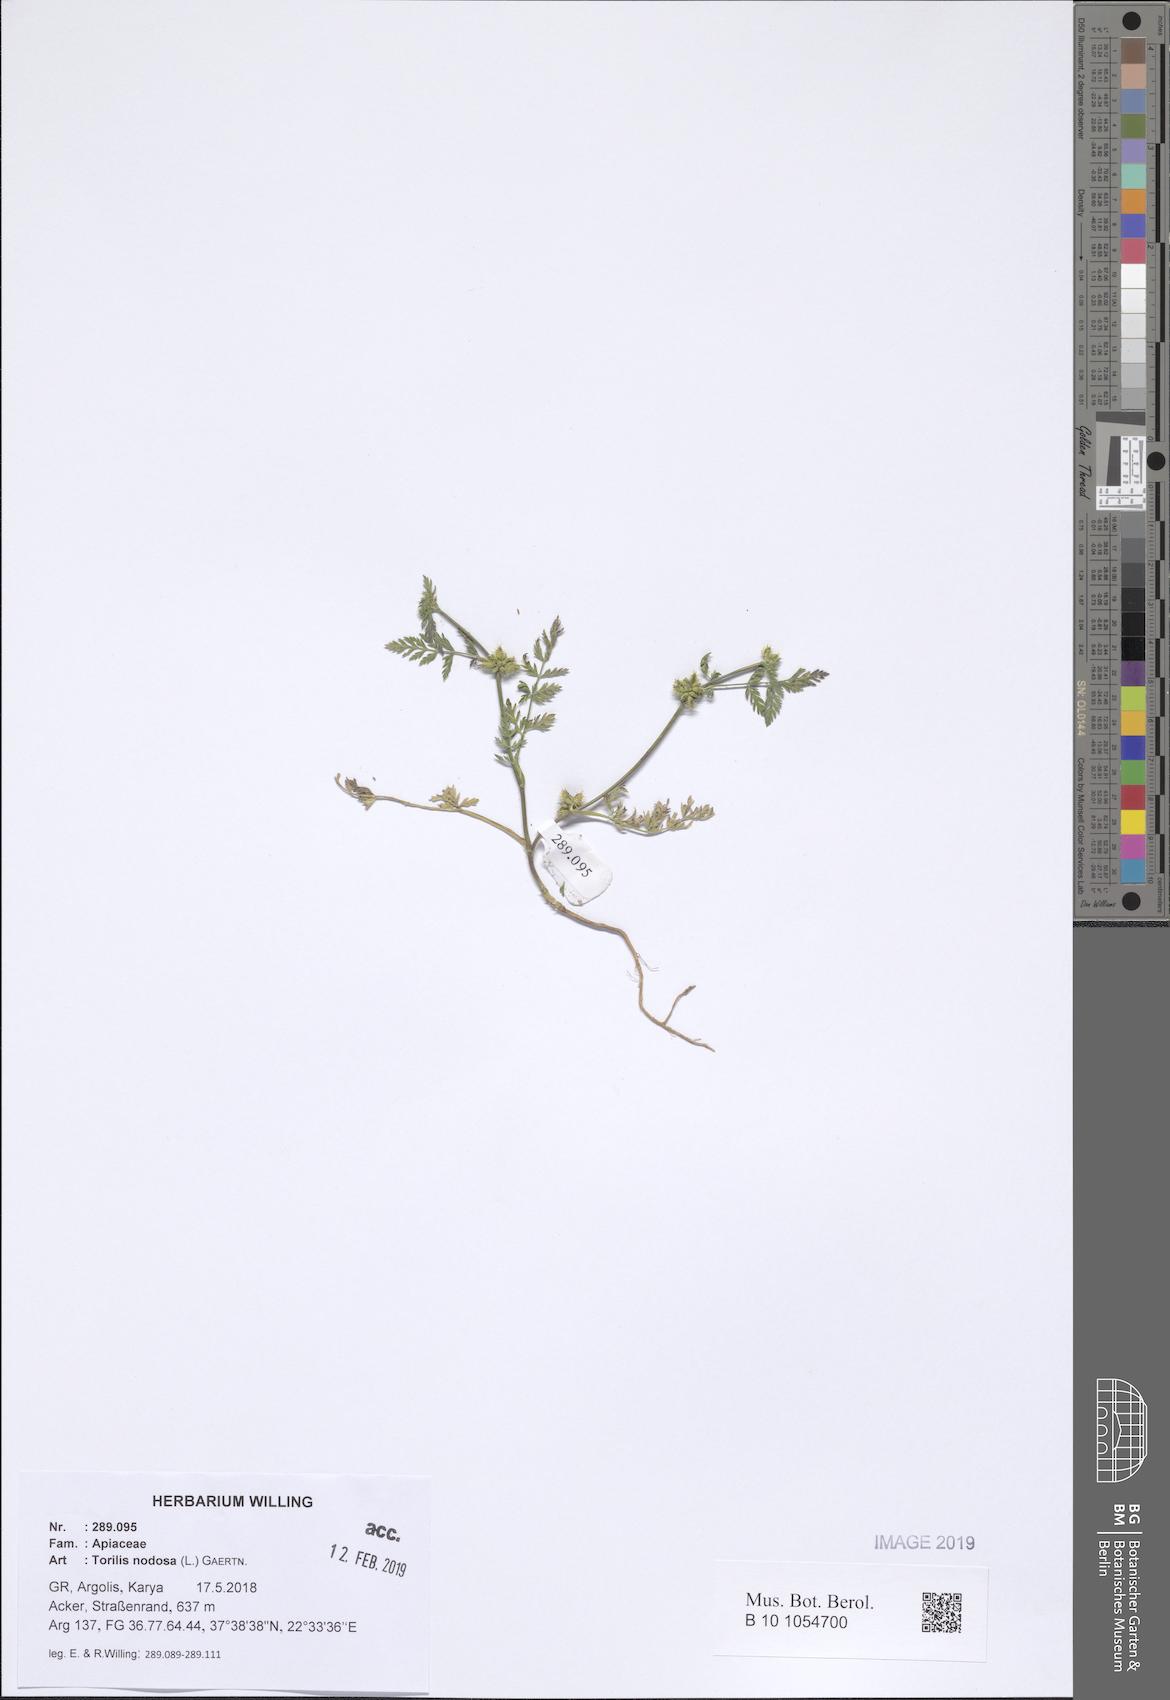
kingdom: Plantae
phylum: Tracheophyta
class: Magnoliopsida
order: Apiales
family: Apiaceae
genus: Torilis
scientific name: Torilis nodosa
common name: Knotted hedge-parsley
